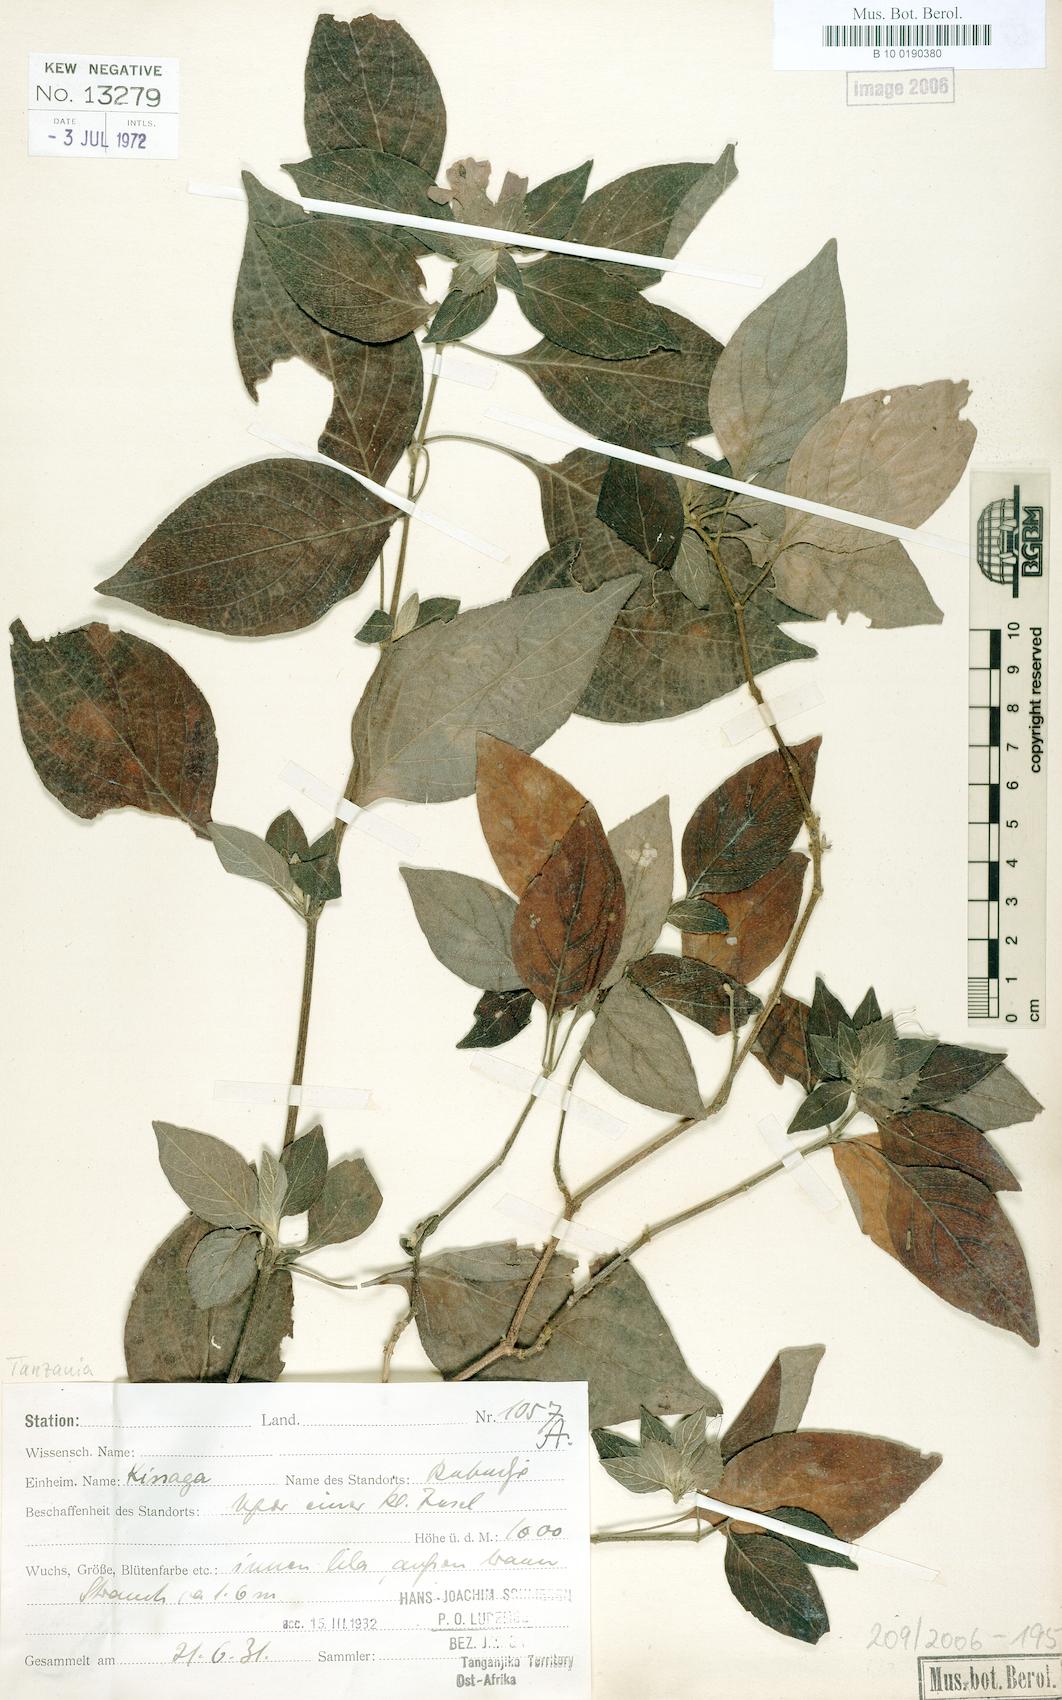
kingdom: Plantae
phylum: Tracheophyta
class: Magnoliopsida
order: Lamiales
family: Acanthaceae
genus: Barleria
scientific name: Barleria ventricosa
